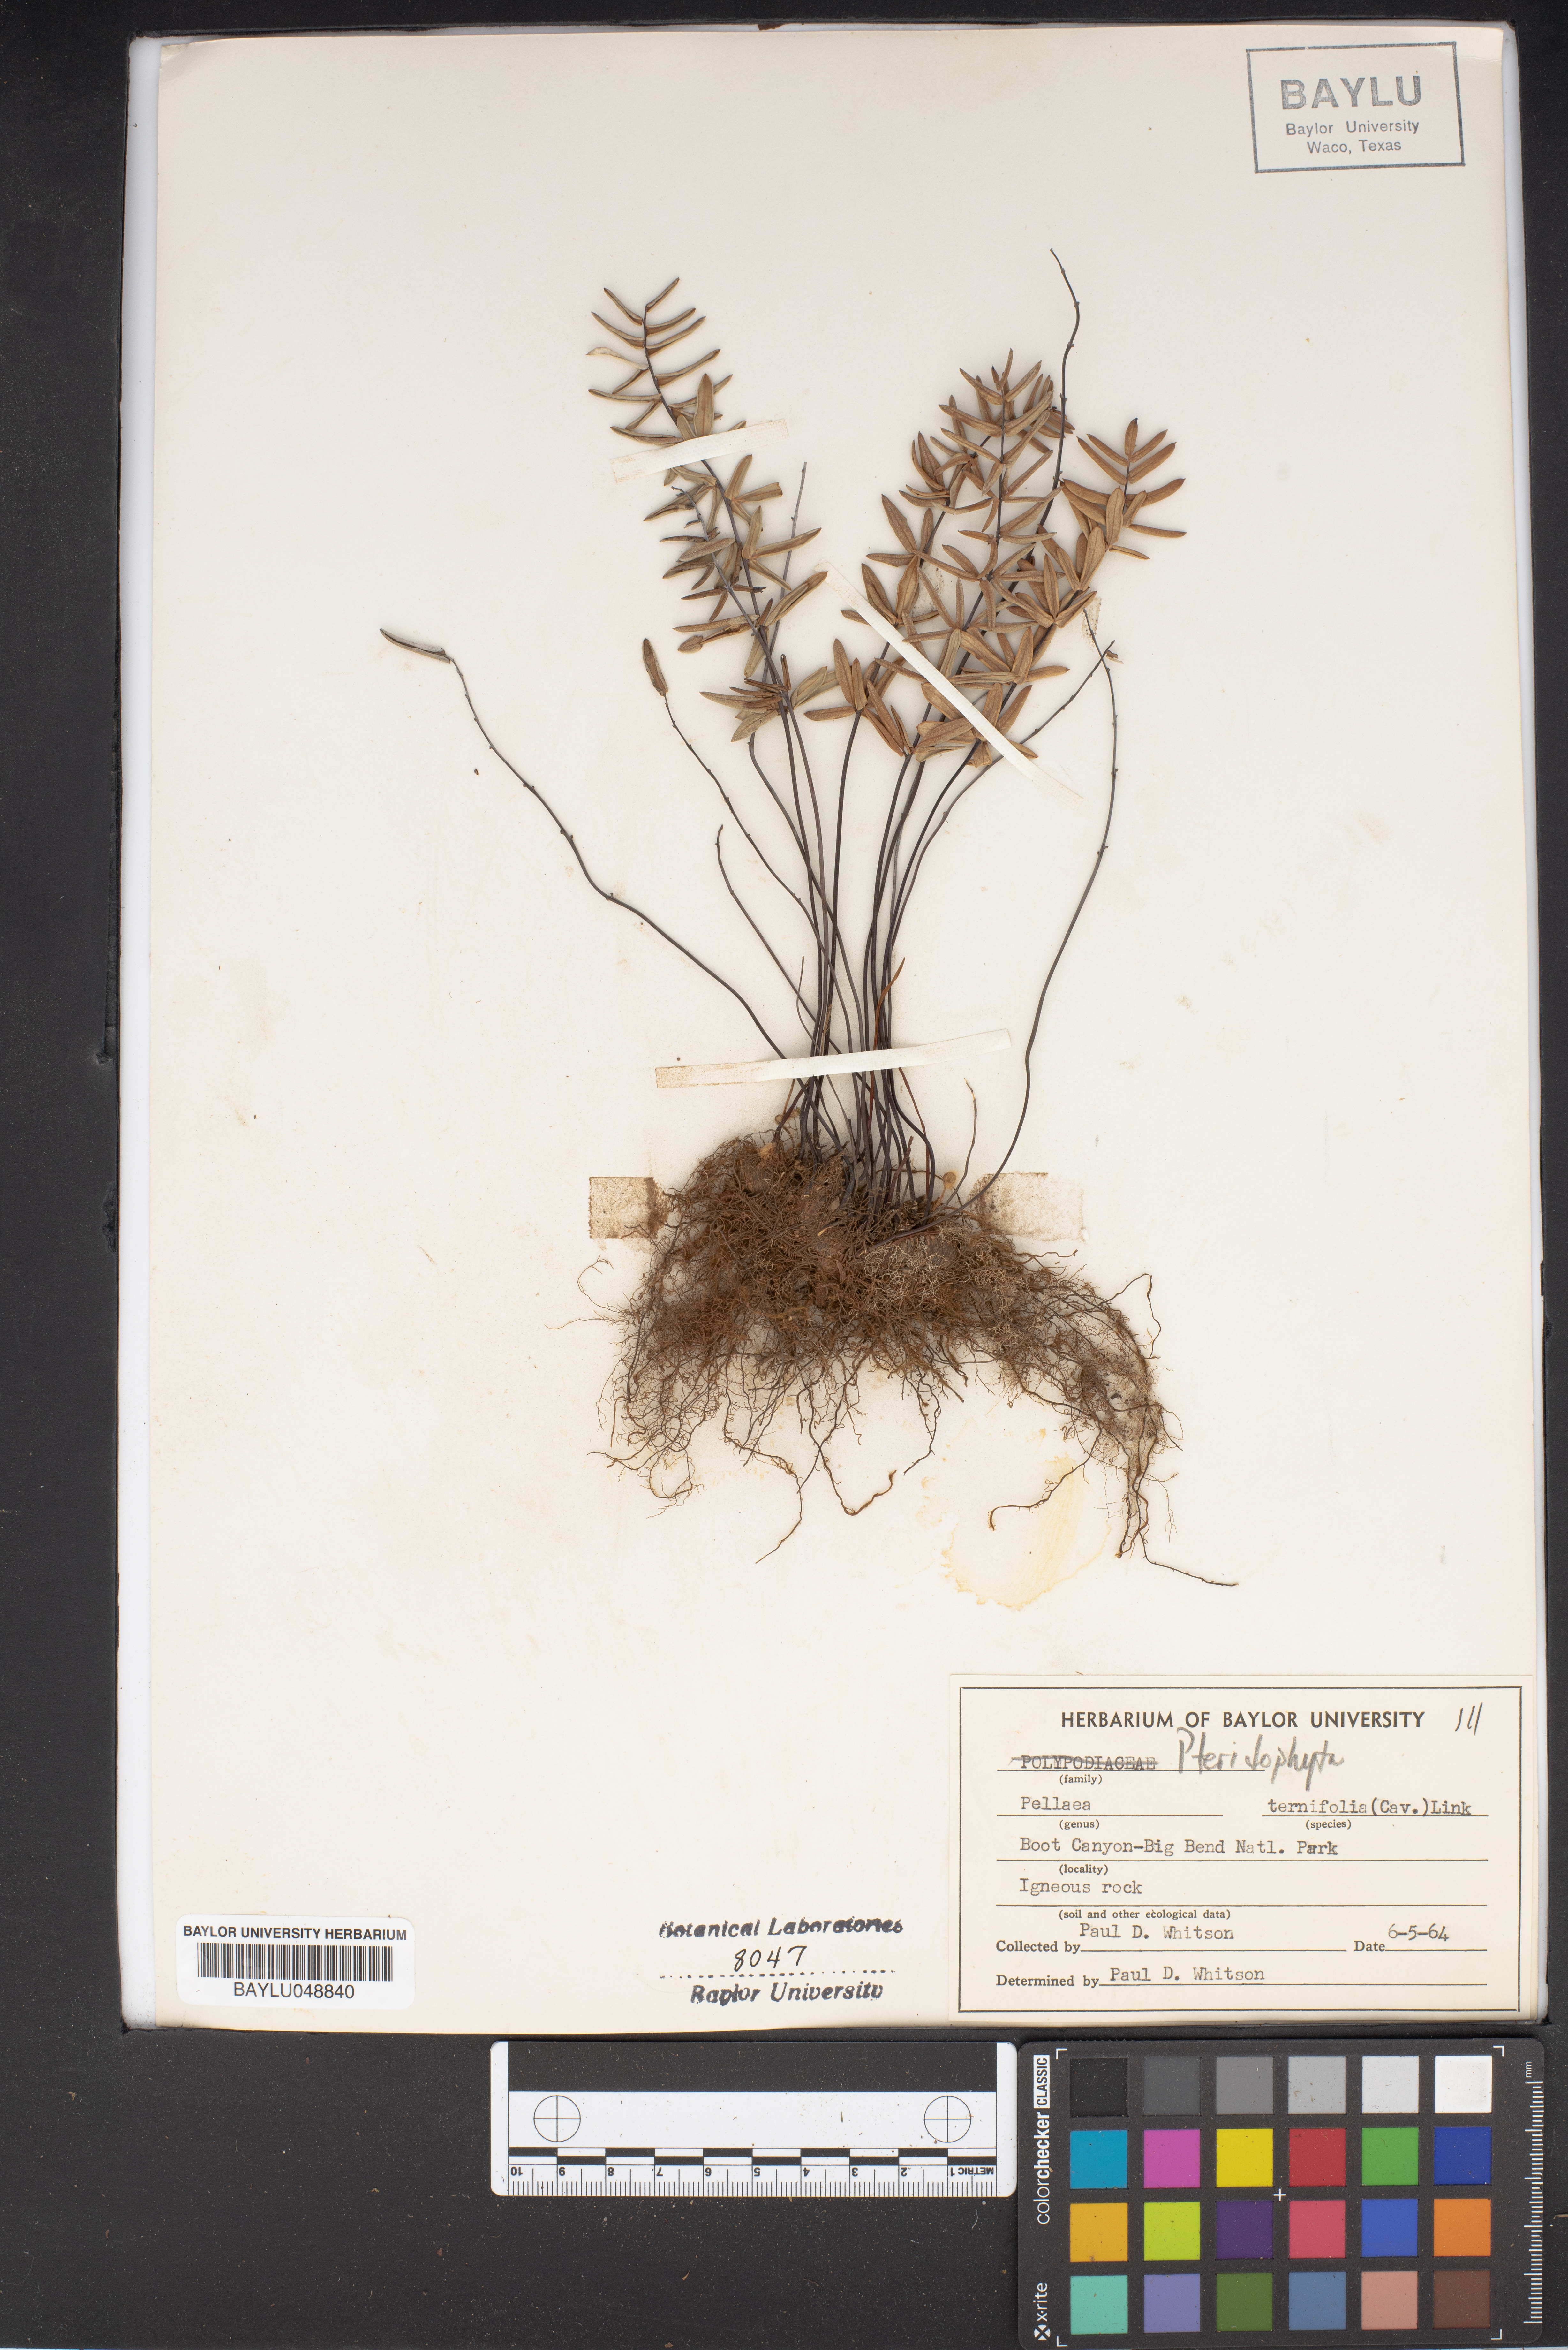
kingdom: Plantae
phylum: Tracheophyta
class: Polypodiopsida
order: Polypodiales
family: Pteridaceae
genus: Pellaea
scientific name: Pellaea ternifolia
